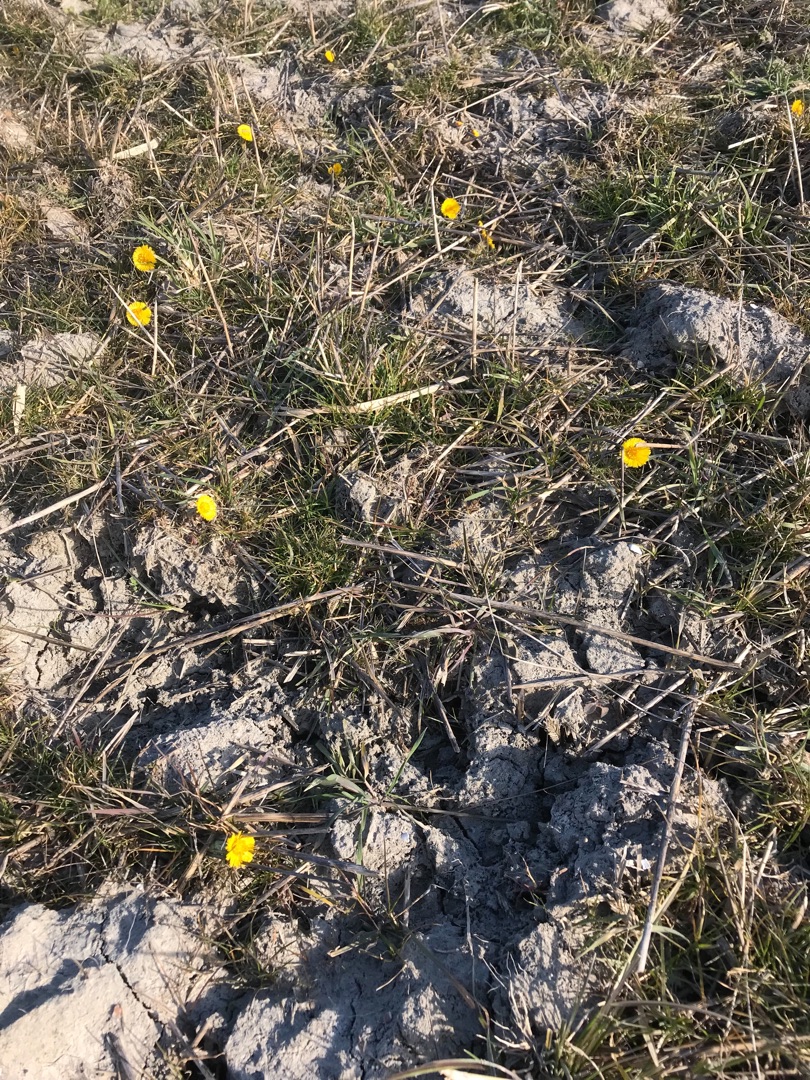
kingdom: Plantae
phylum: Tracheophyta
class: Magnoliopsida
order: Asterales
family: Asteraceae
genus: Tussilago
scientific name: Tussilago farfara
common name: Følfod
